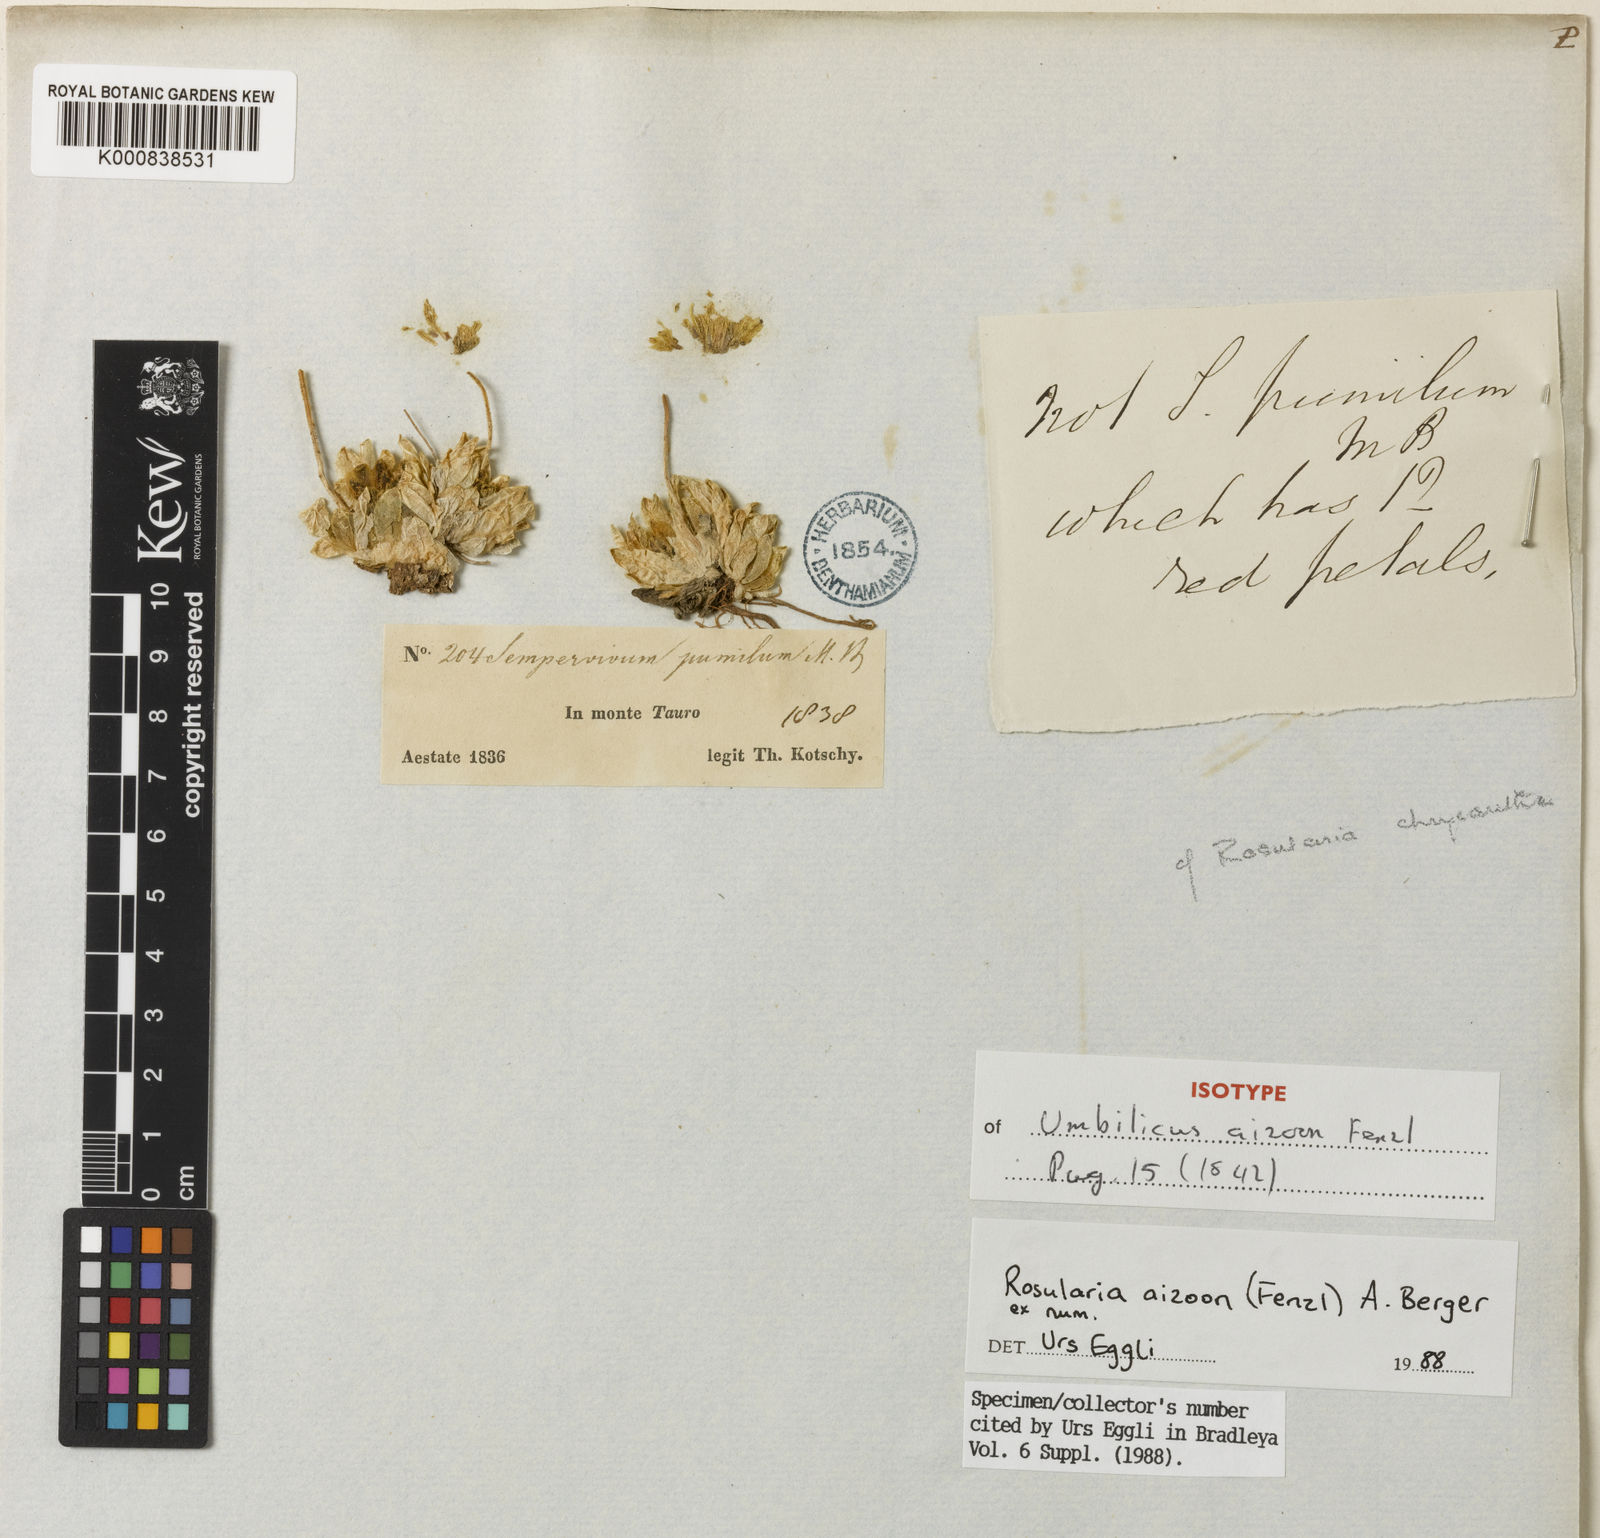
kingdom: Plantae
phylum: Tracheophyta
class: Magnoliopsida
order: Saxifragales
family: Crassulaceae
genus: Prometheum
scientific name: Prometheum aizoon
